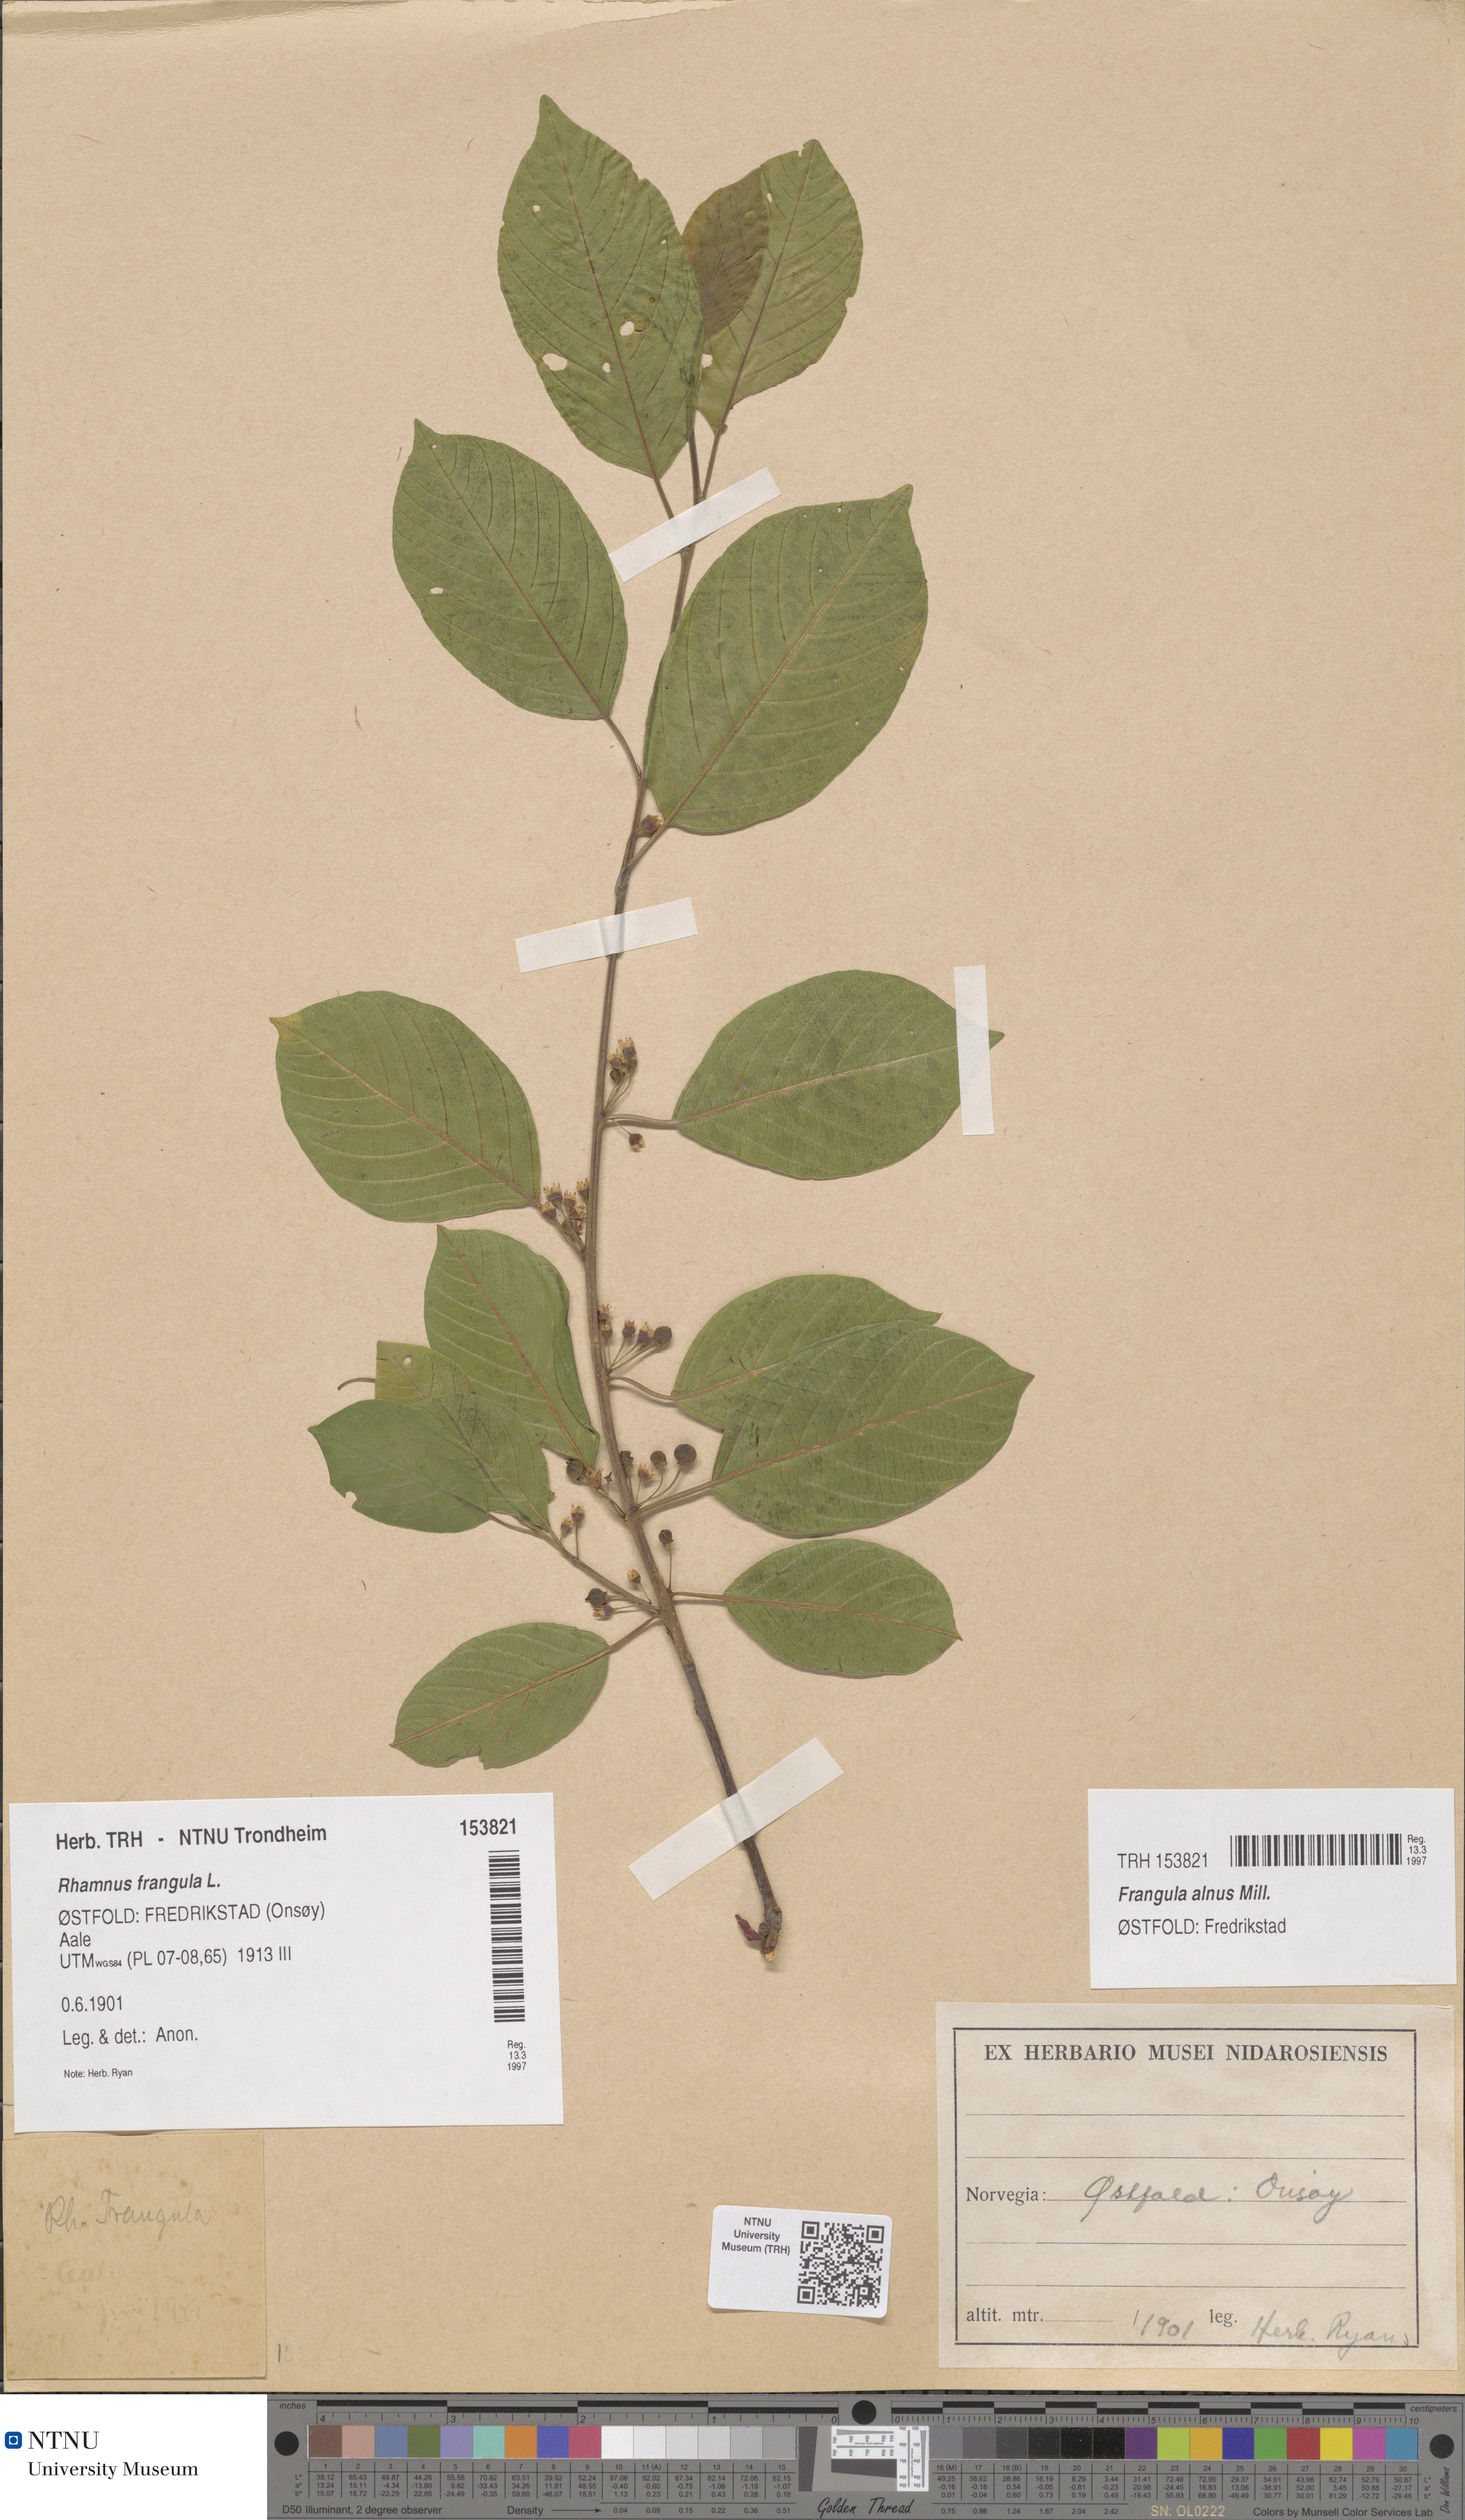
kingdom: Plantae
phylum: Tracheophyta
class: Magnoliopsida
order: Rosales
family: Rhamnaceae
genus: Frangula
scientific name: Frangula alnus
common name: Alder buckthorn
